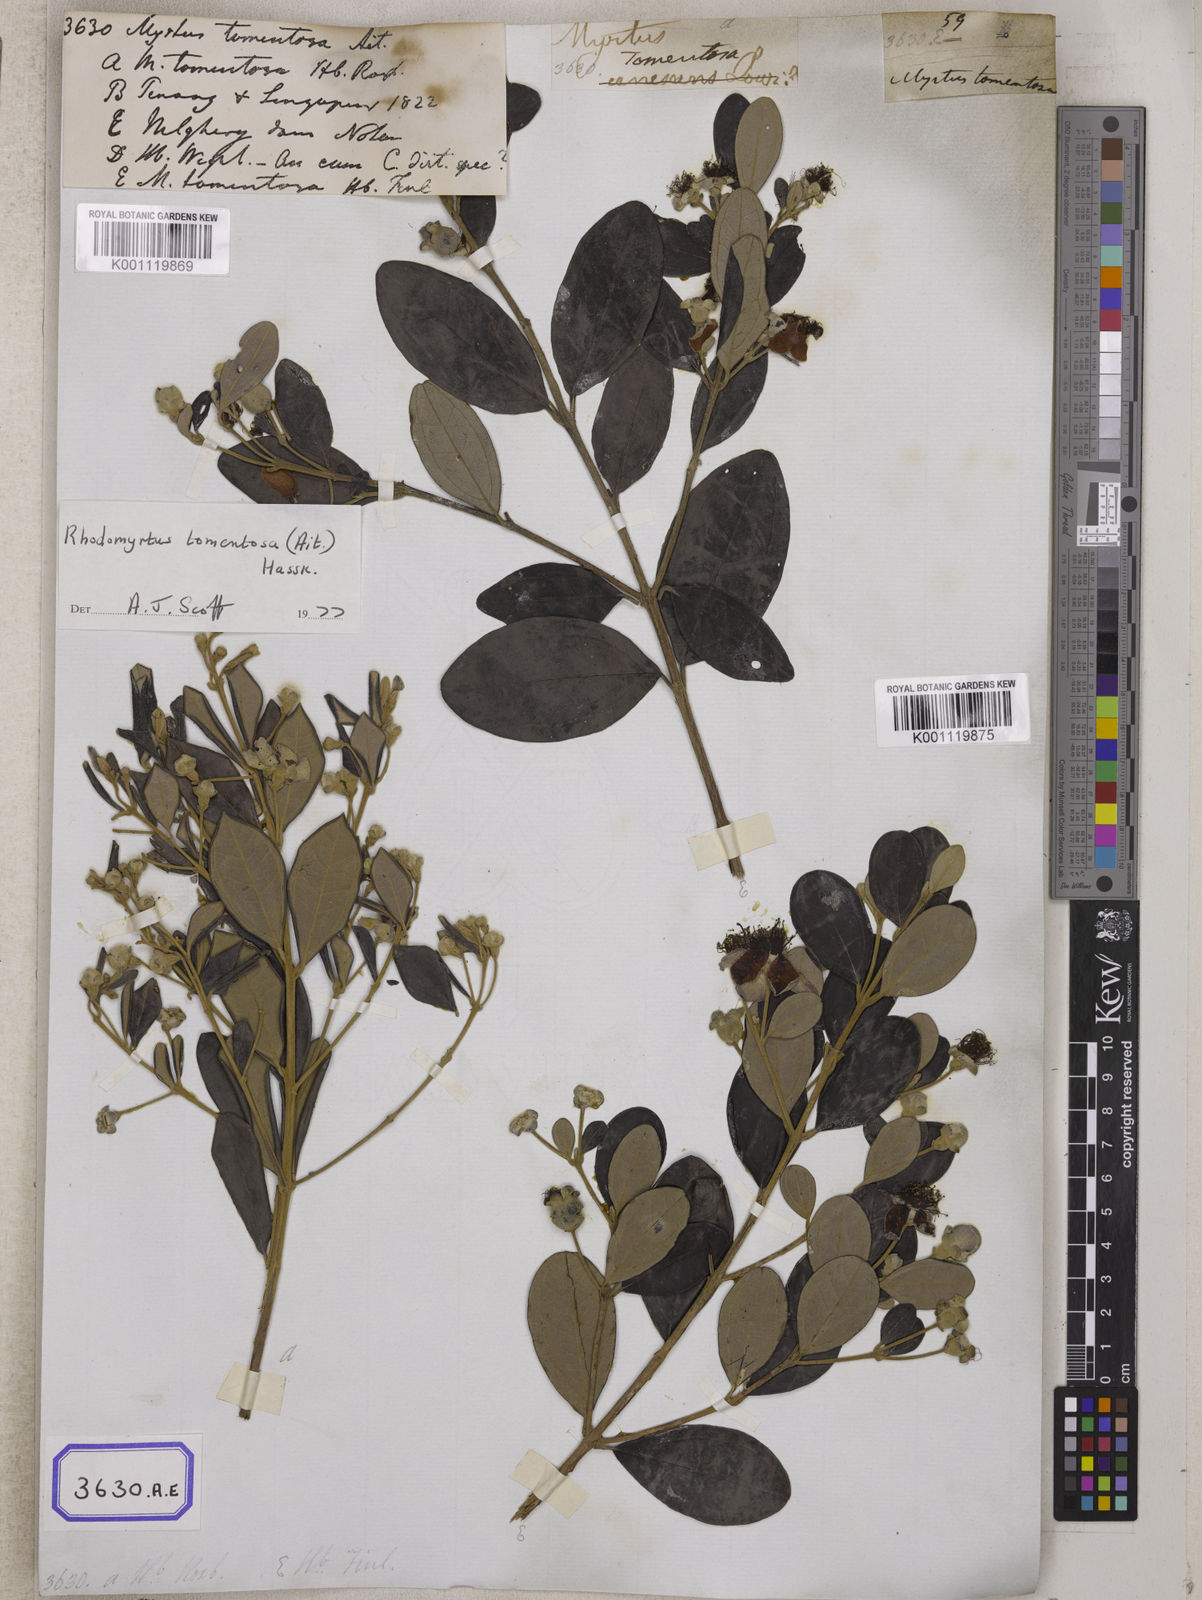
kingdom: Plantae
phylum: Tracheophyta
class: Magnoliopsida
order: Myrtales
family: Myrtaceae
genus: Rhodomyrtus
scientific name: Rhodomyrtus tomentosa
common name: Rose myrtle
